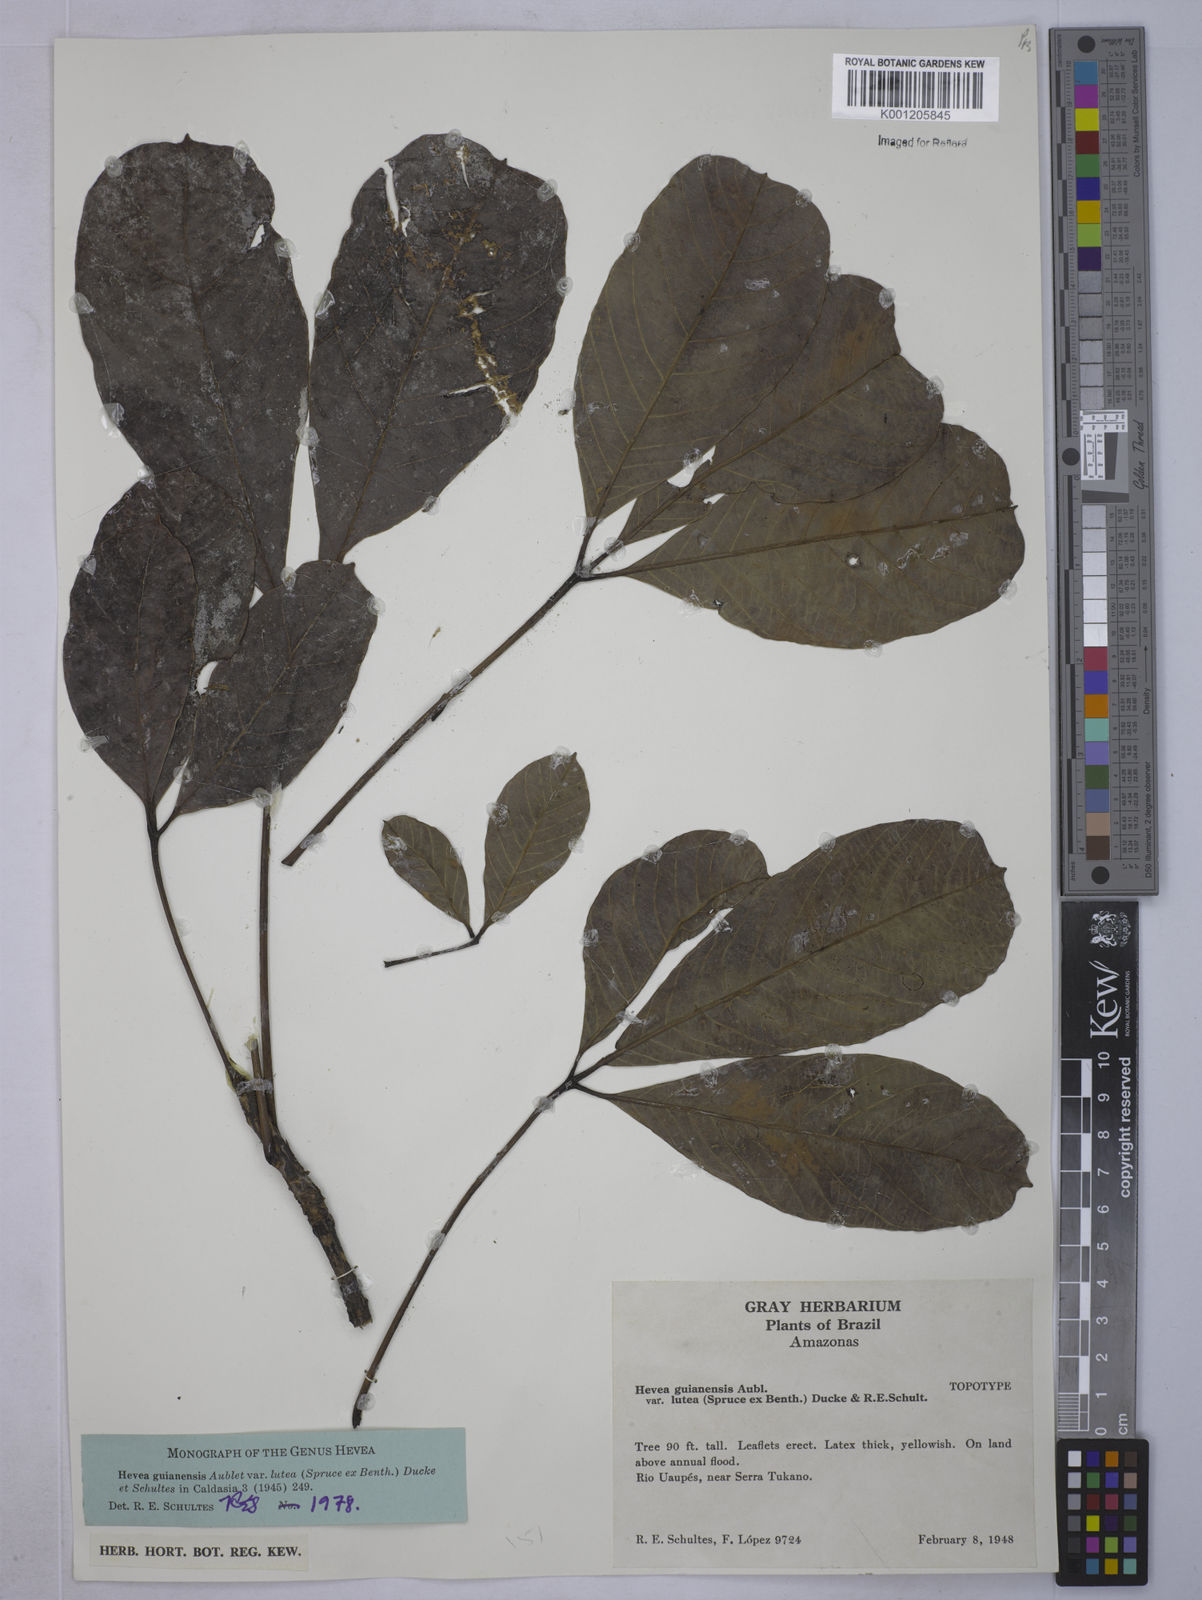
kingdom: Plantae
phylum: Tracheophyta
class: Magnoliopsida
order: Malpighiales
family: Euphorbiaceae
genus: Hevea
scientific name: Hevea guianensis
